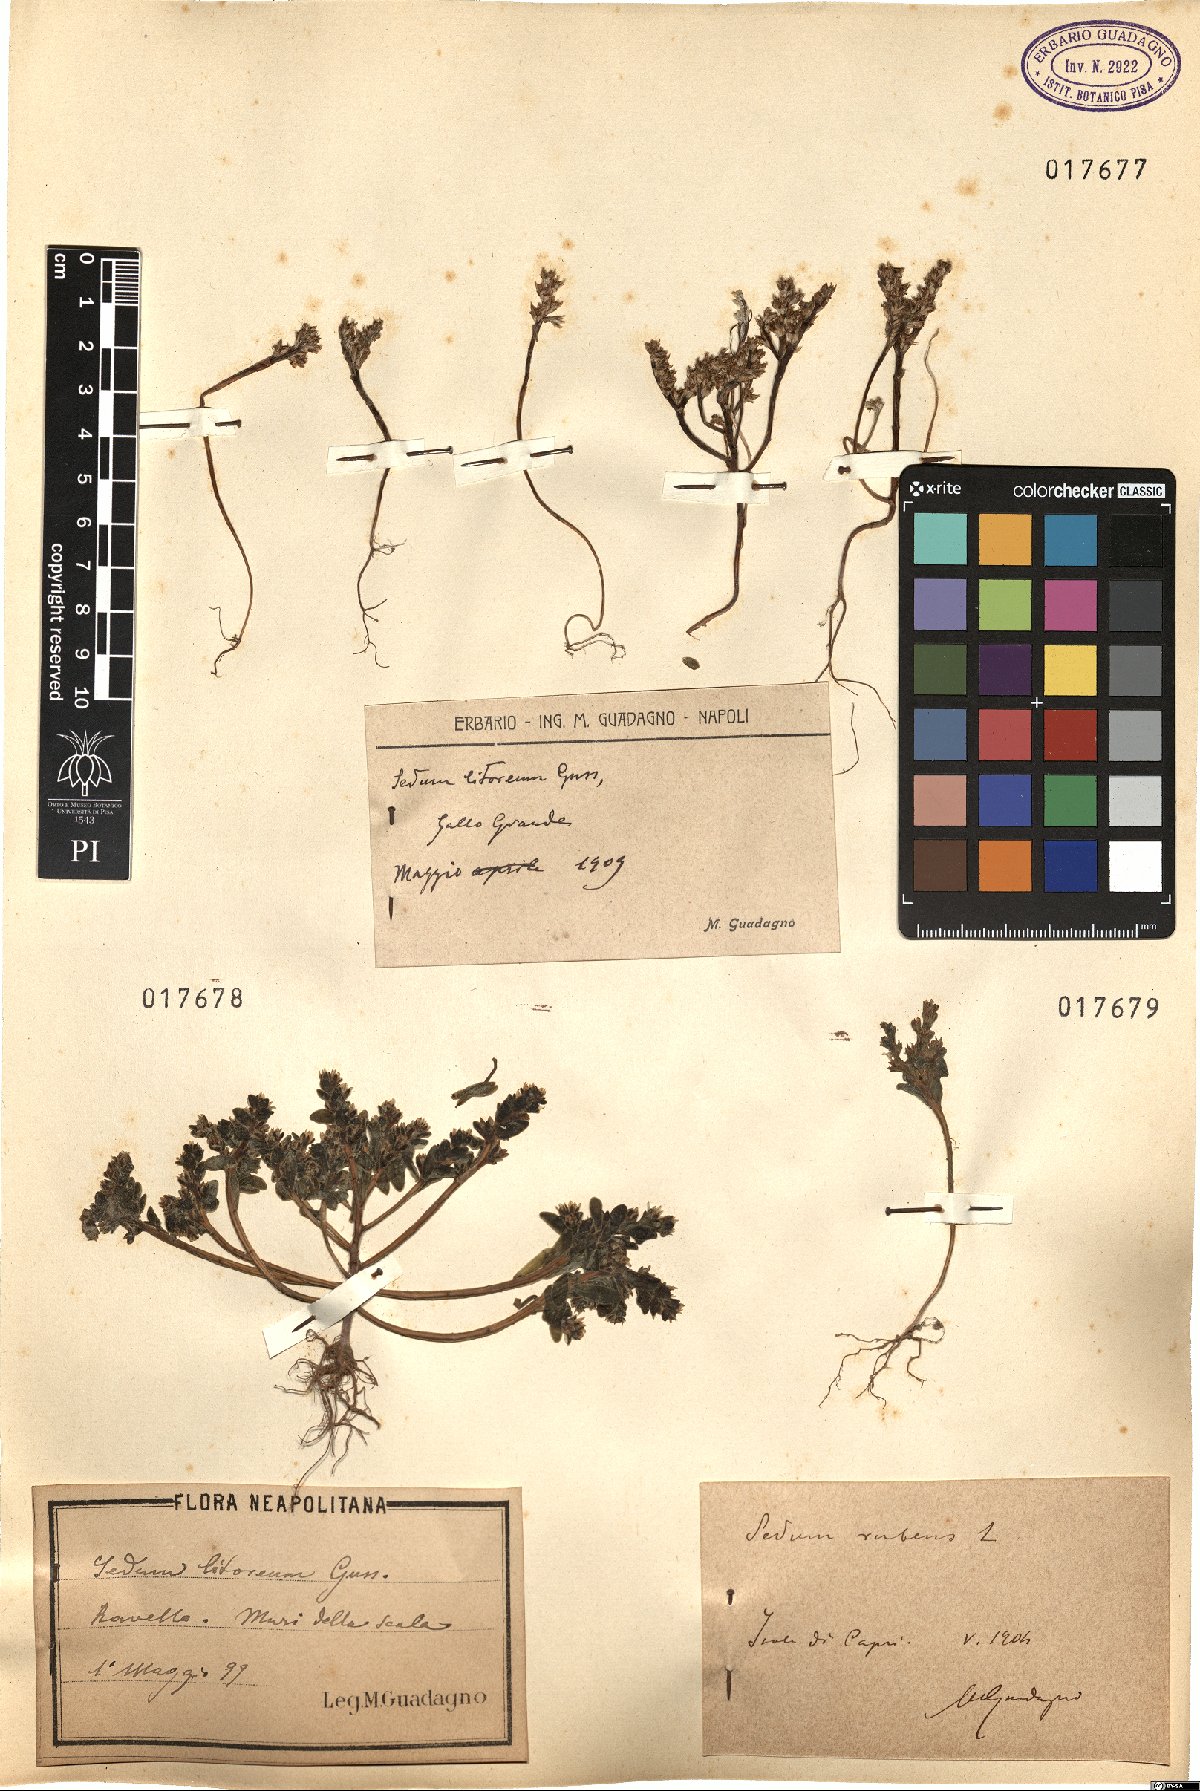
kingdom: Plantae
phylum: Tracheophyta
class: Magnoliopsida
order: Saxifragales
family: Crassulaceae
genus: Sedum
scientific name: Sedum rubens
